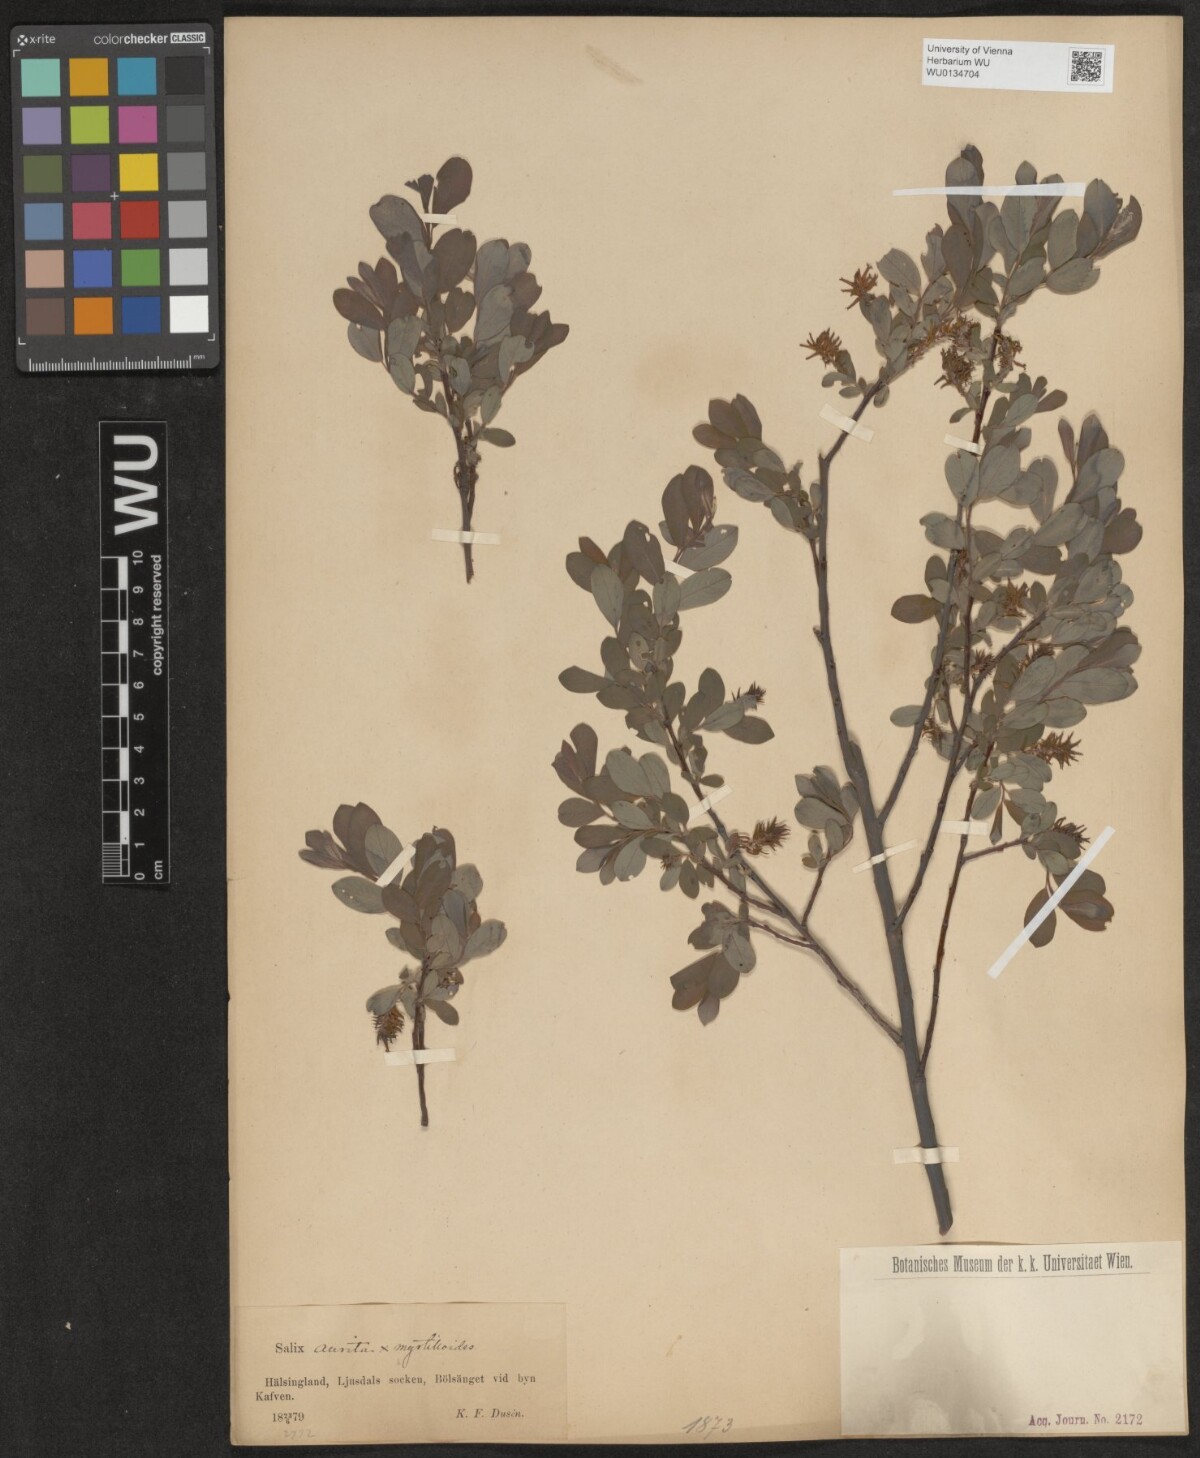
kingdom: Plantae
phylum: Tracheophyta
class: Magnoliopsida
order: Malpighiales
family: Salicaceae
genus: Salix
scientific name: Salix
